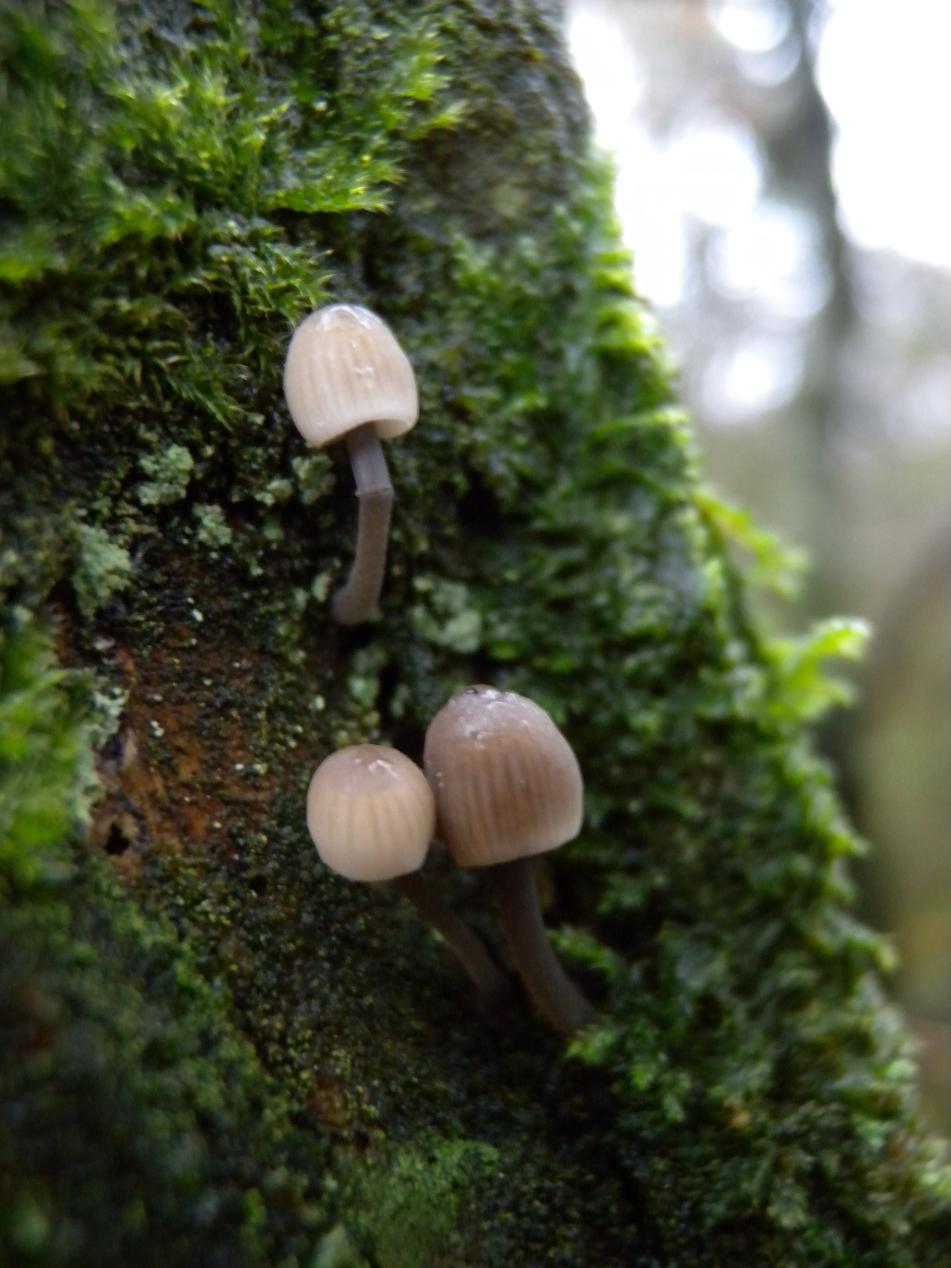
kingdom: Fungi
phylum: Basidiomycota
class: Agaricomycetes
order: Agaricales
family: Mycenaceae
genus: Mycena
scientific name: Mycena arcangeliana
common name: oliven-huesvamp
